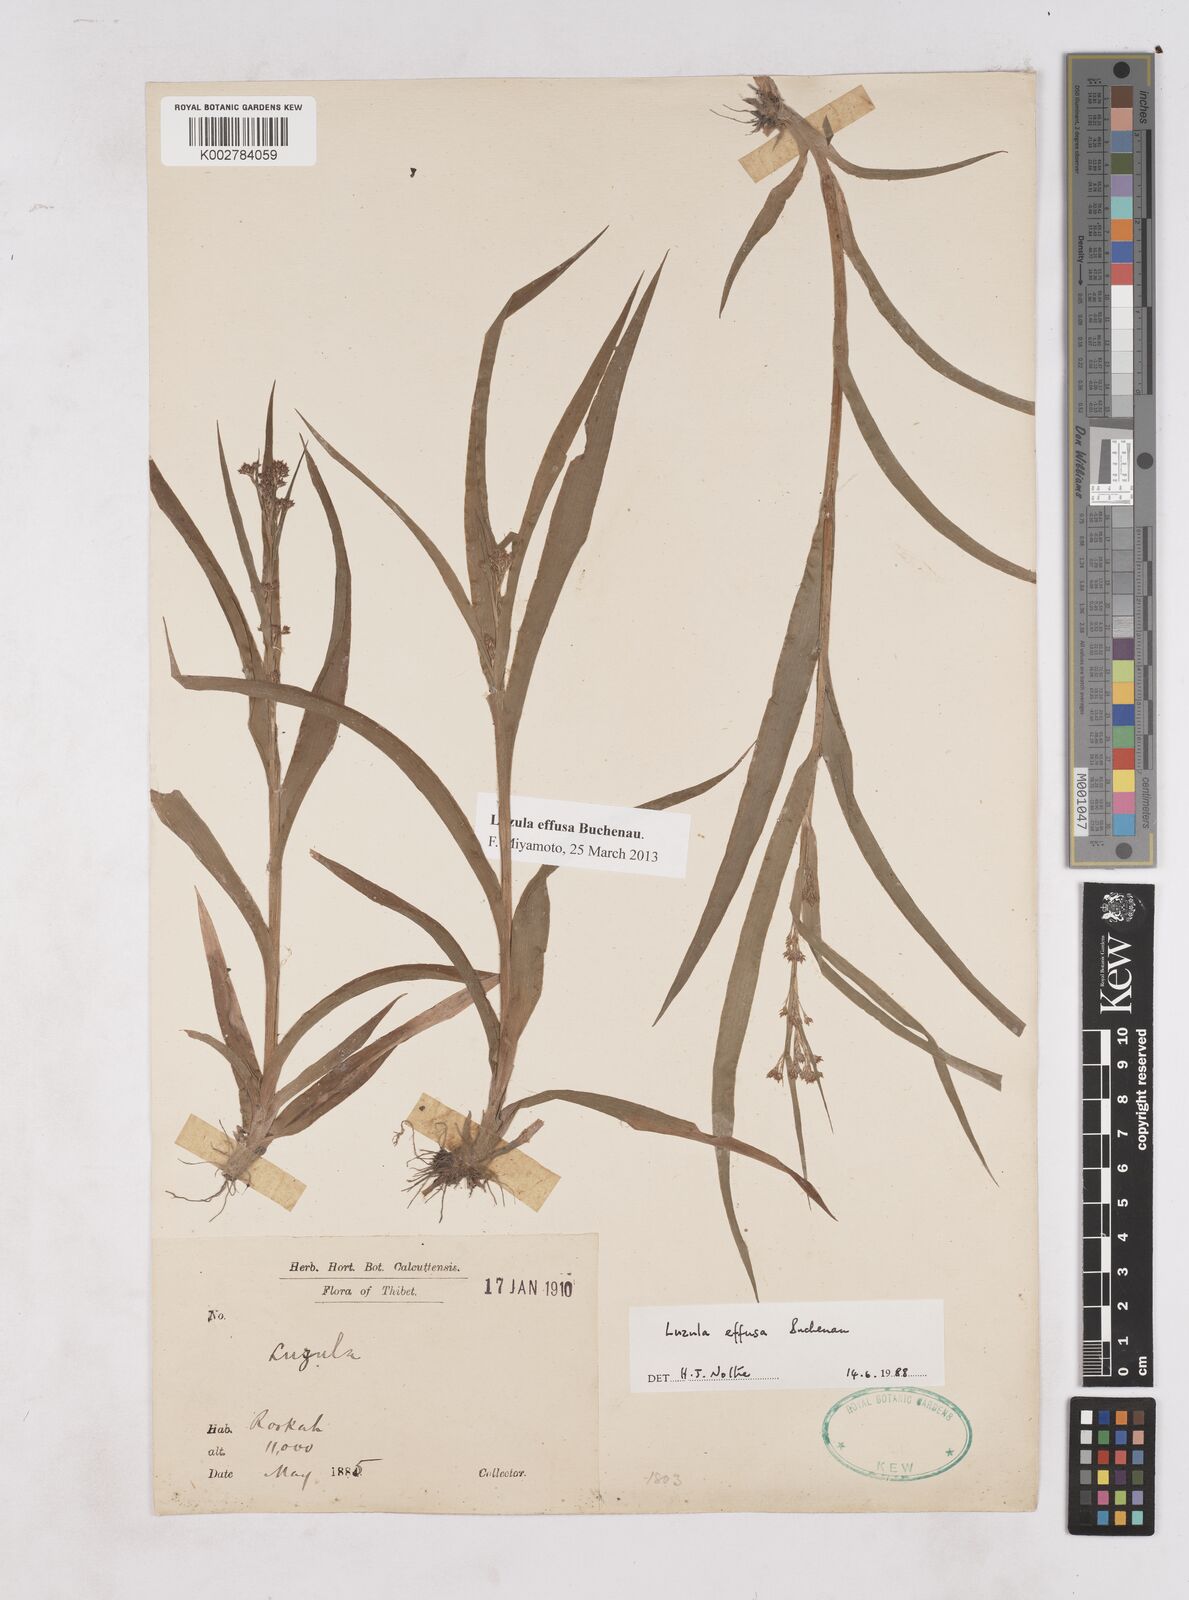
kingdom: Plantae
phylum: Tracheophyta
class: Liliopsida
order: Poales
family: Juncaceae
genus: Luzula
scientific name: Luzula effusa
